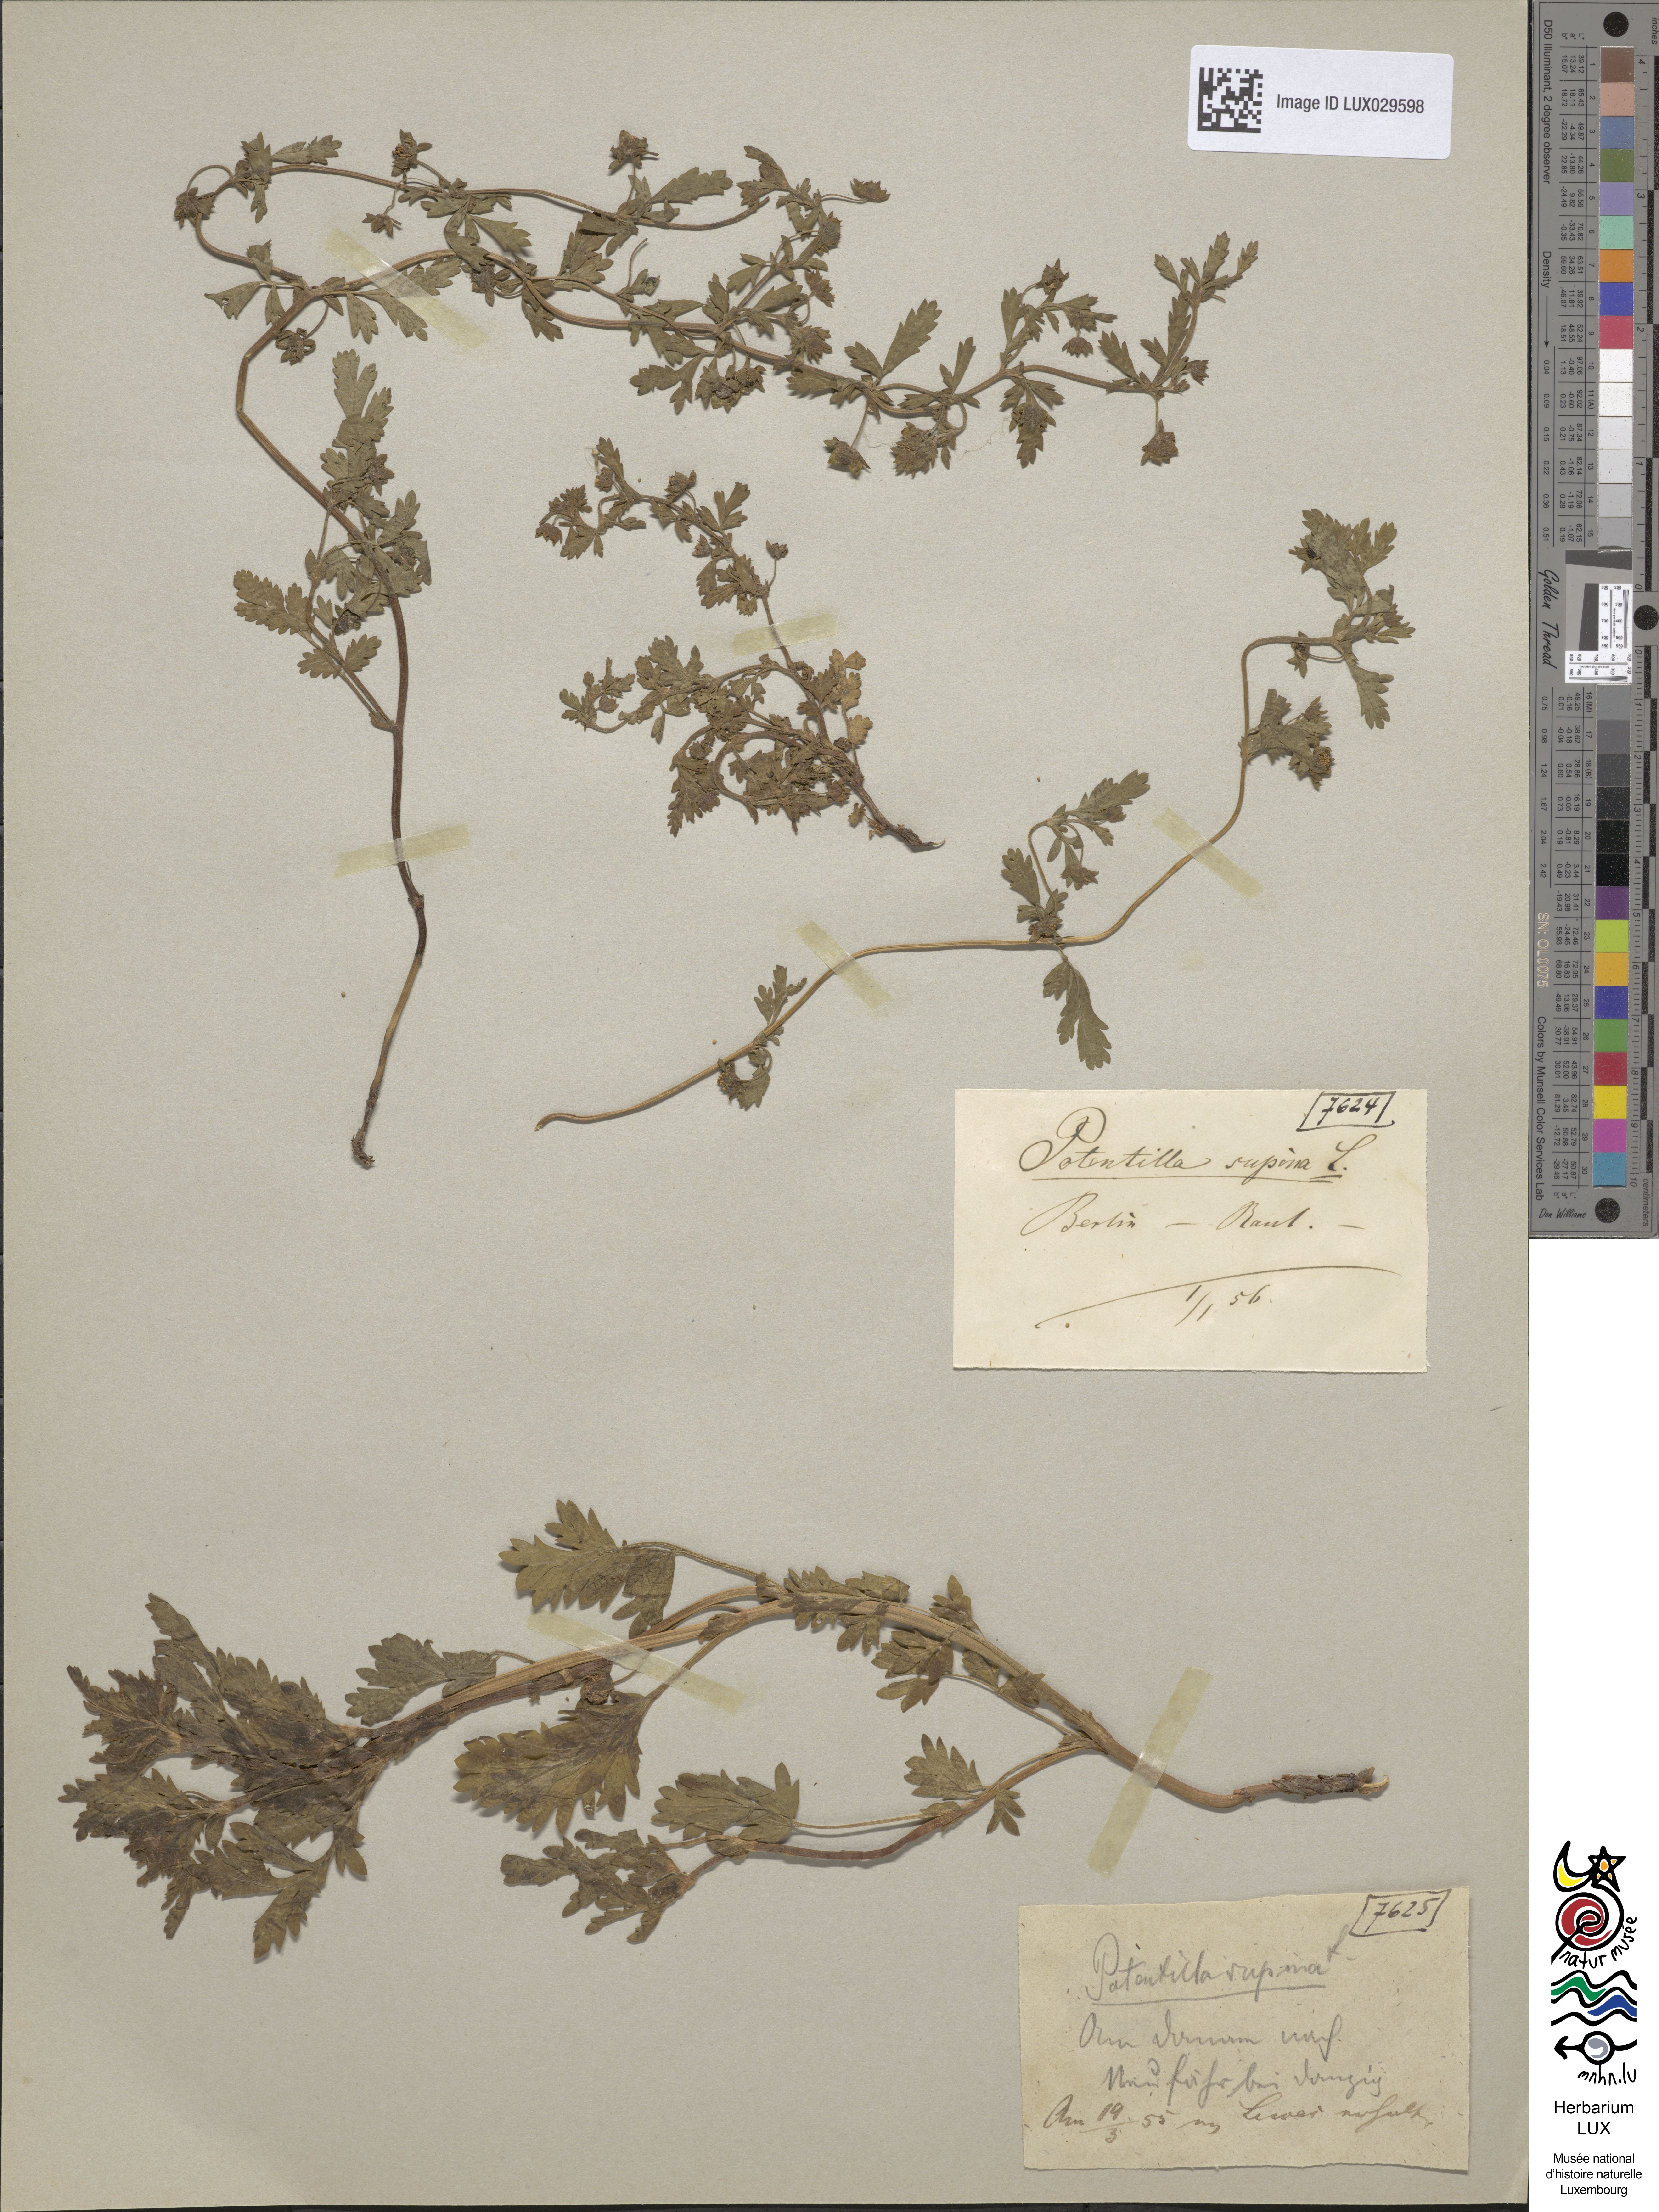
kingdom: Plantae
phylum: Tracheophyta
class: Magnoliopsida
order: Rosales
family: Rosaceae
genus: Potentilla
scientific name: Potentilla supina
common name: Prostrate cinquefoil
